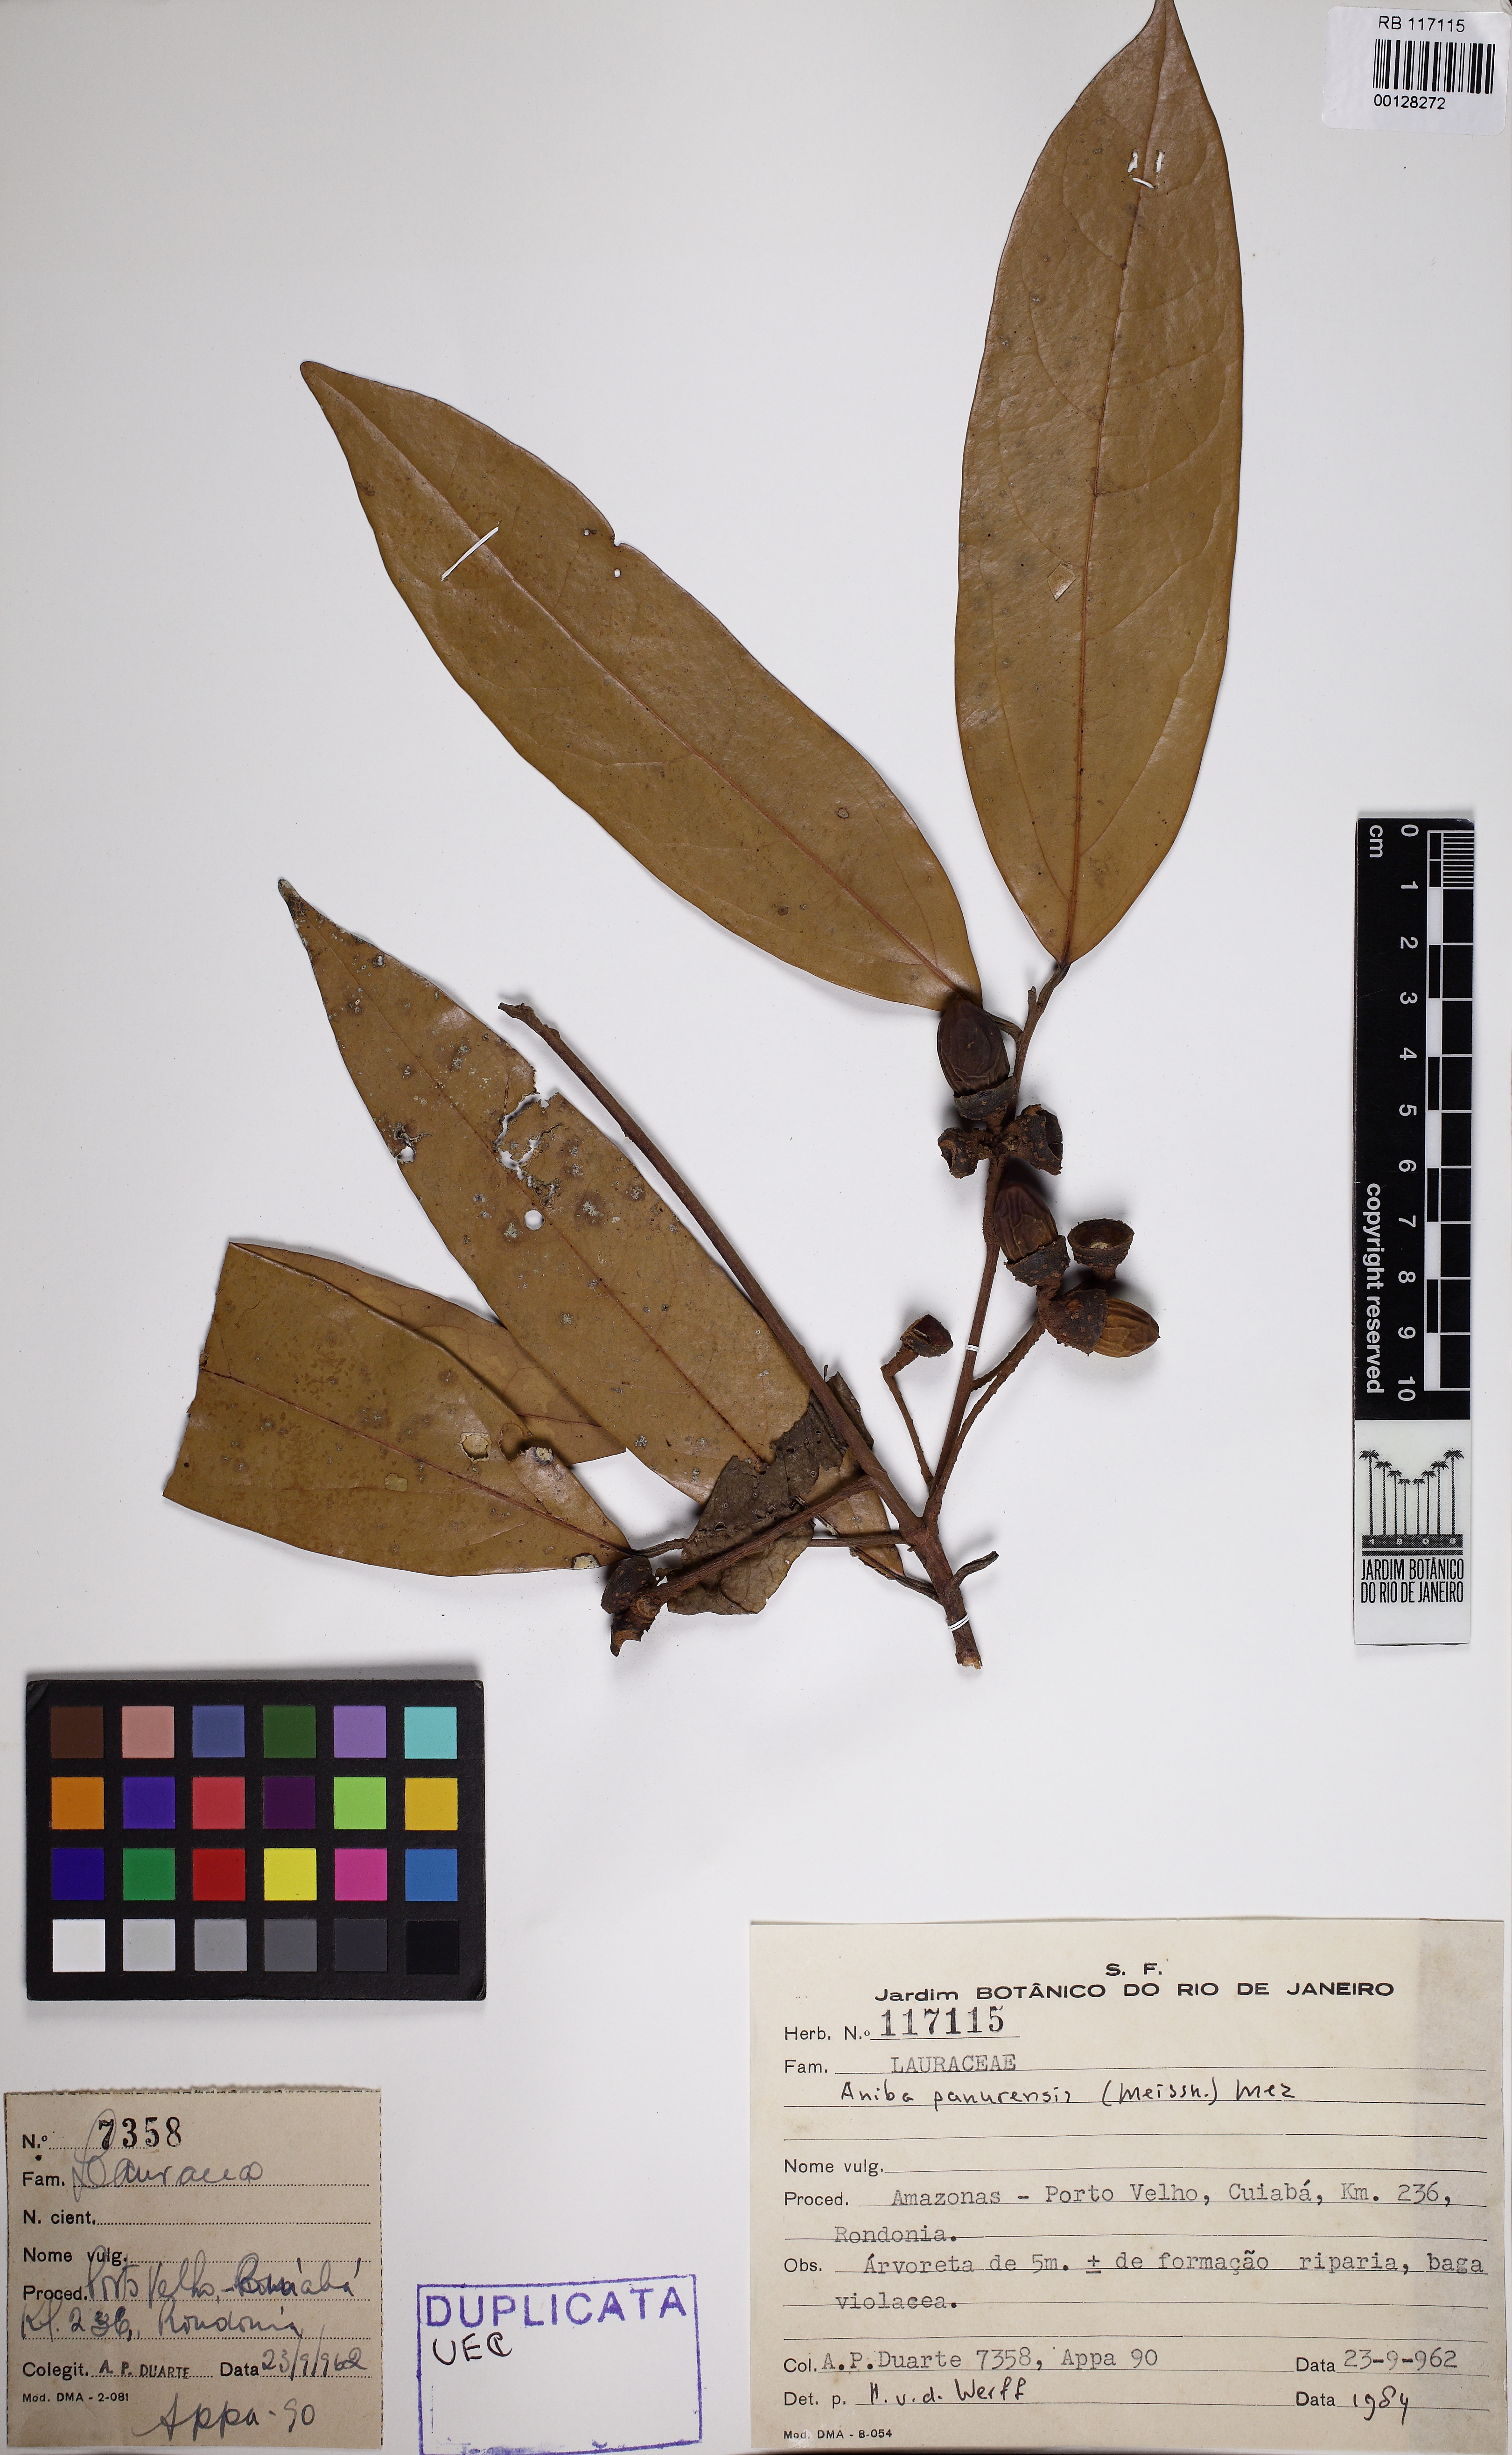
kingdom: Plantae
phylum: Tracheophyta
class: Magnoliopsida
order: Laurales
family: Lauraceae
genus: Aniba
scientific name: Aniba parviflora
